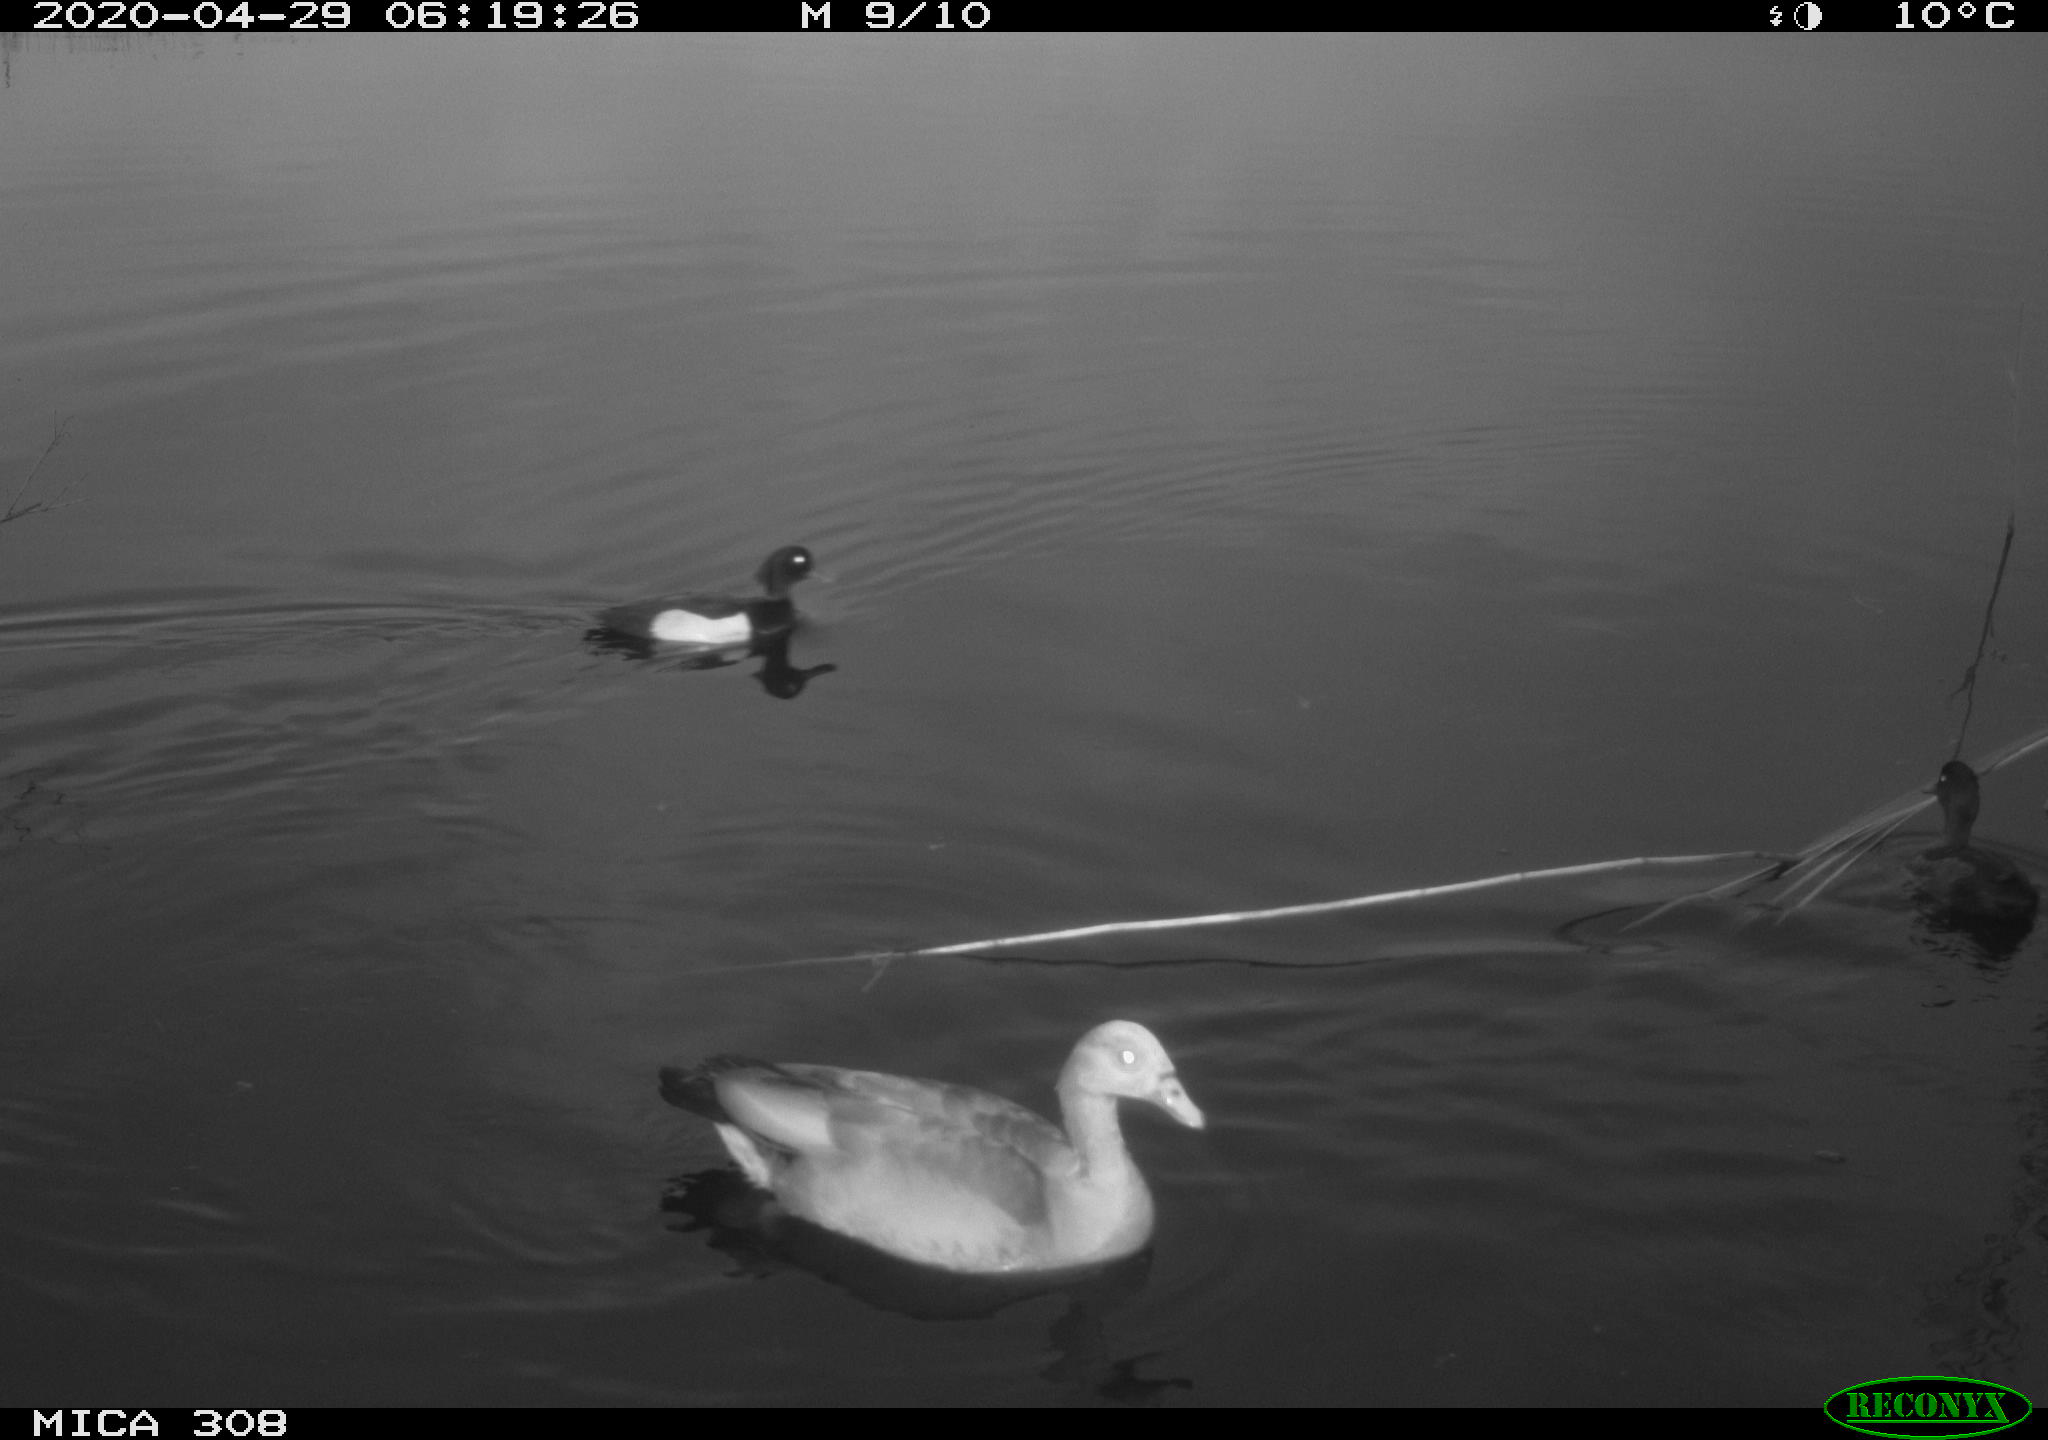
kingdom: Animalia
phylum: Chordata
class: Aves
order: Anseriformes
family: Anatidae
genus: Aythya
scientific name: Aythya fuligula
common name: Tufted duck
